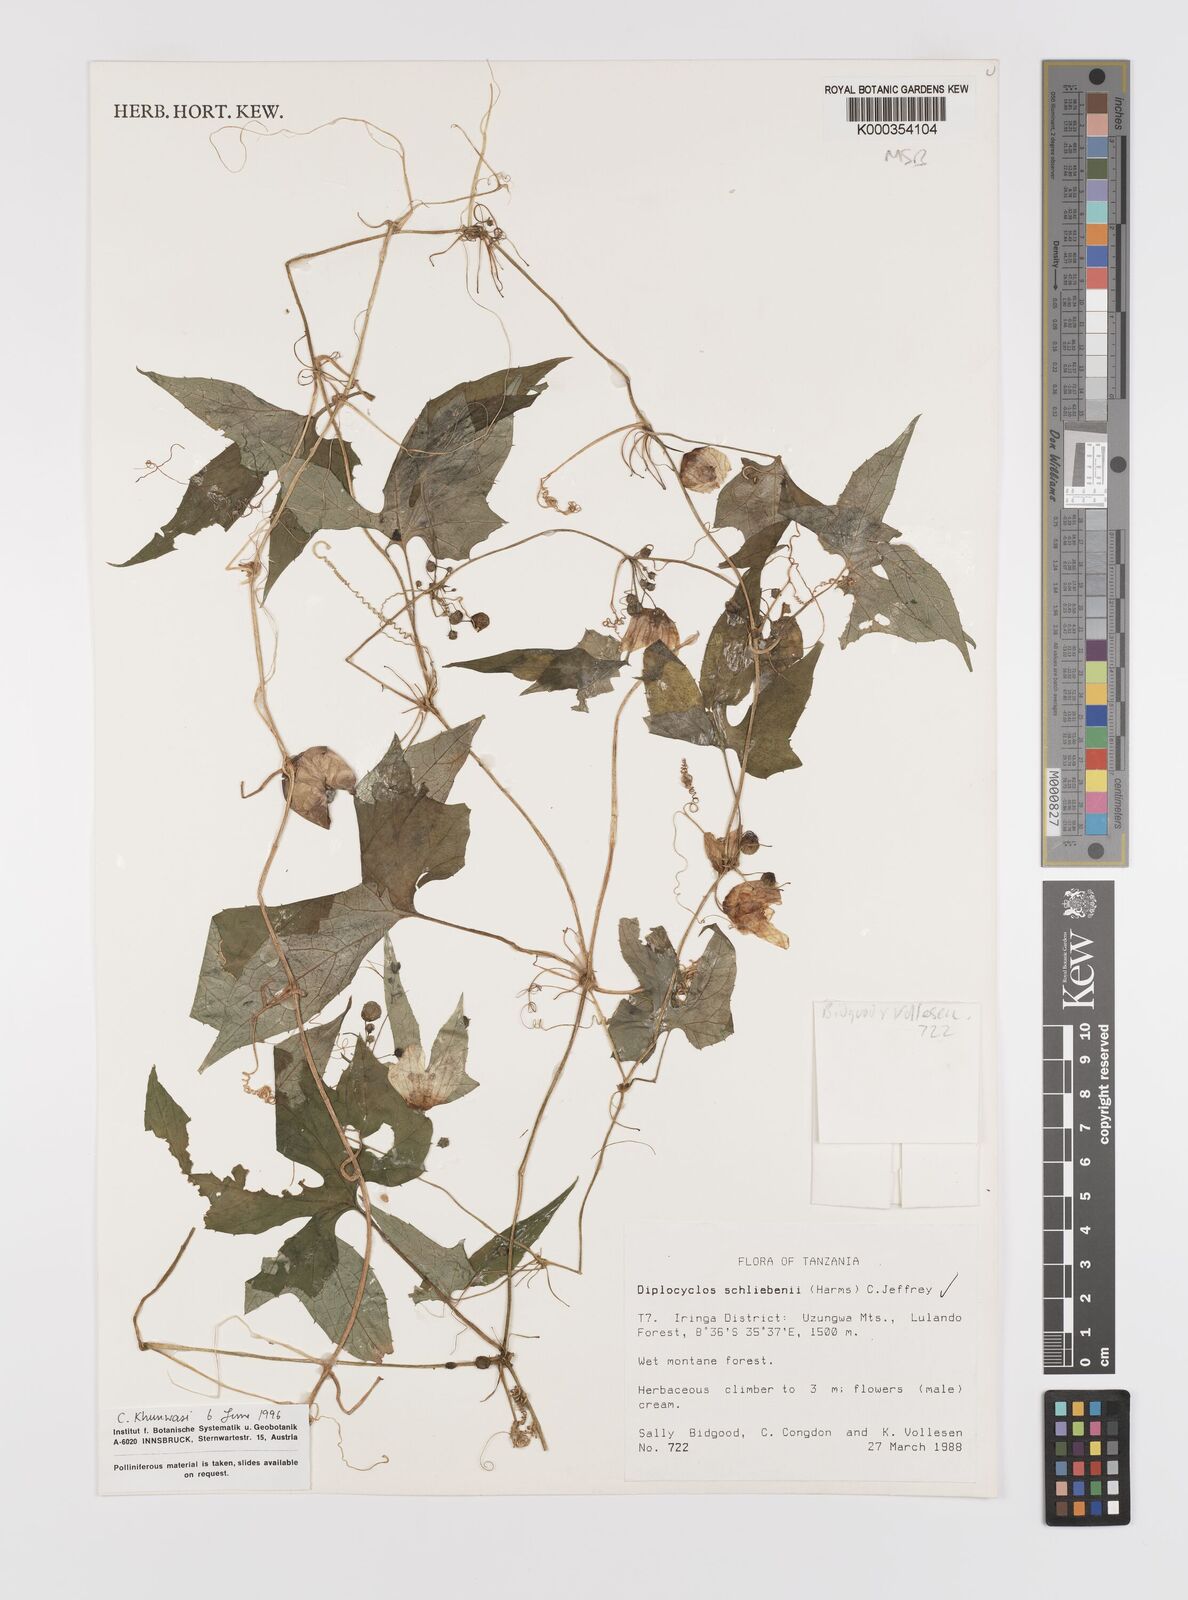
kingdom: Plantae
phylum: Tracheophyta
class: Magnoliopsida
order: Cucurbitales
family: Cucurbitaceae
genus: Diplocyclos
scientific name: Diplocyclos schliebenii
